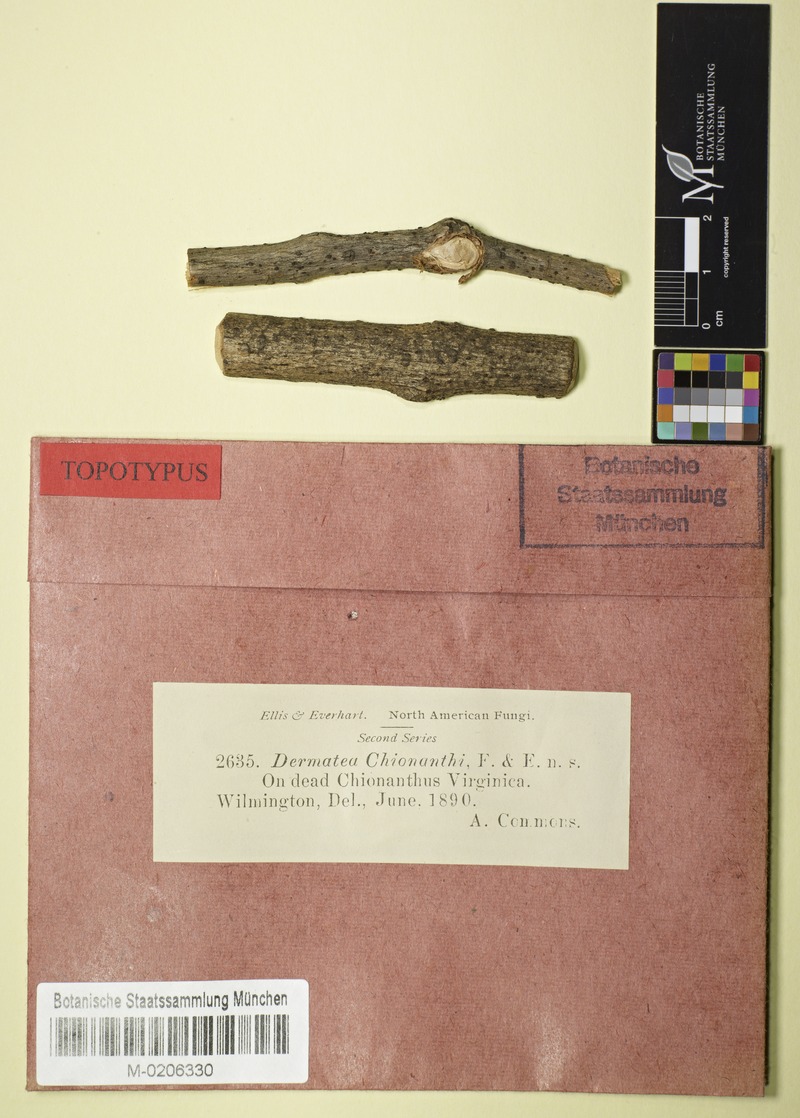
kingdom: Plantae
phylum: Tracheophyta
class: Magnoliopsida
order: Lamiales
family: Oleaceae
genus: Chionanthus
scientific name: Chionanthus virginicus
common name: American fringetree
